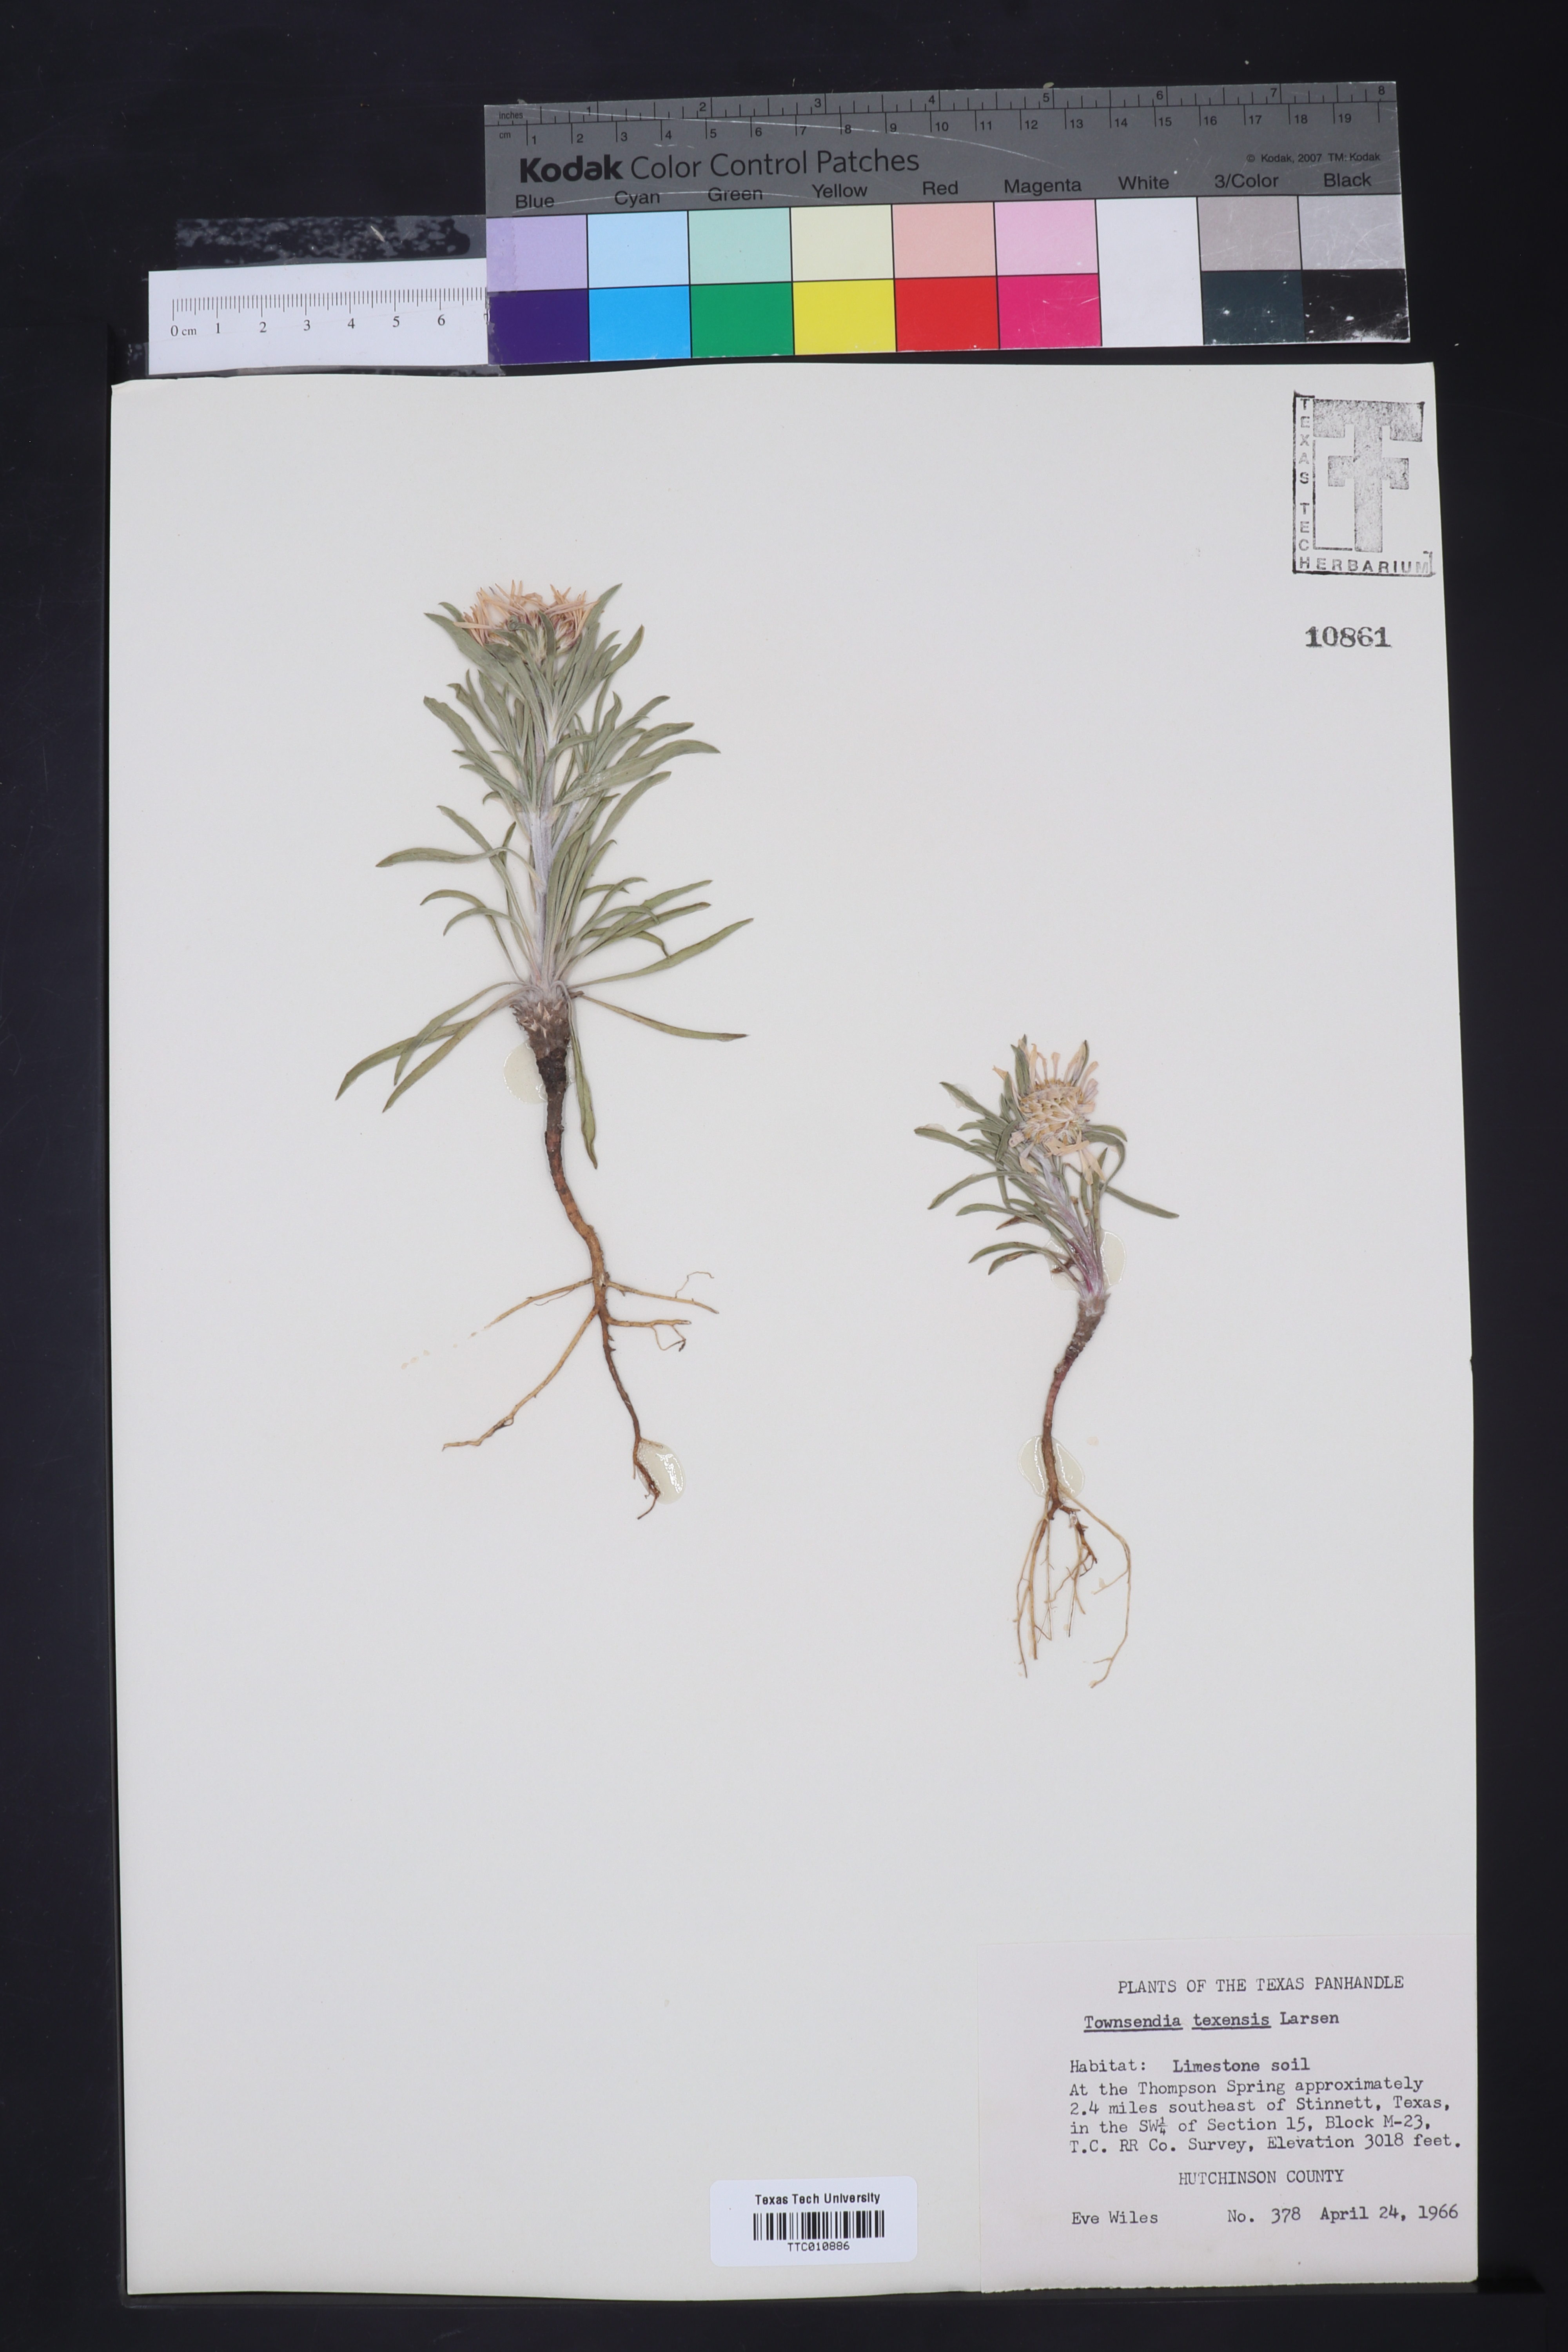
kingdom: Plantae
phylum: Tracheophyta
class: Magnoliopsida
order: Asterales
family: Asteraceae
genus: Townsendia
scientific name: Townsendia texensis
